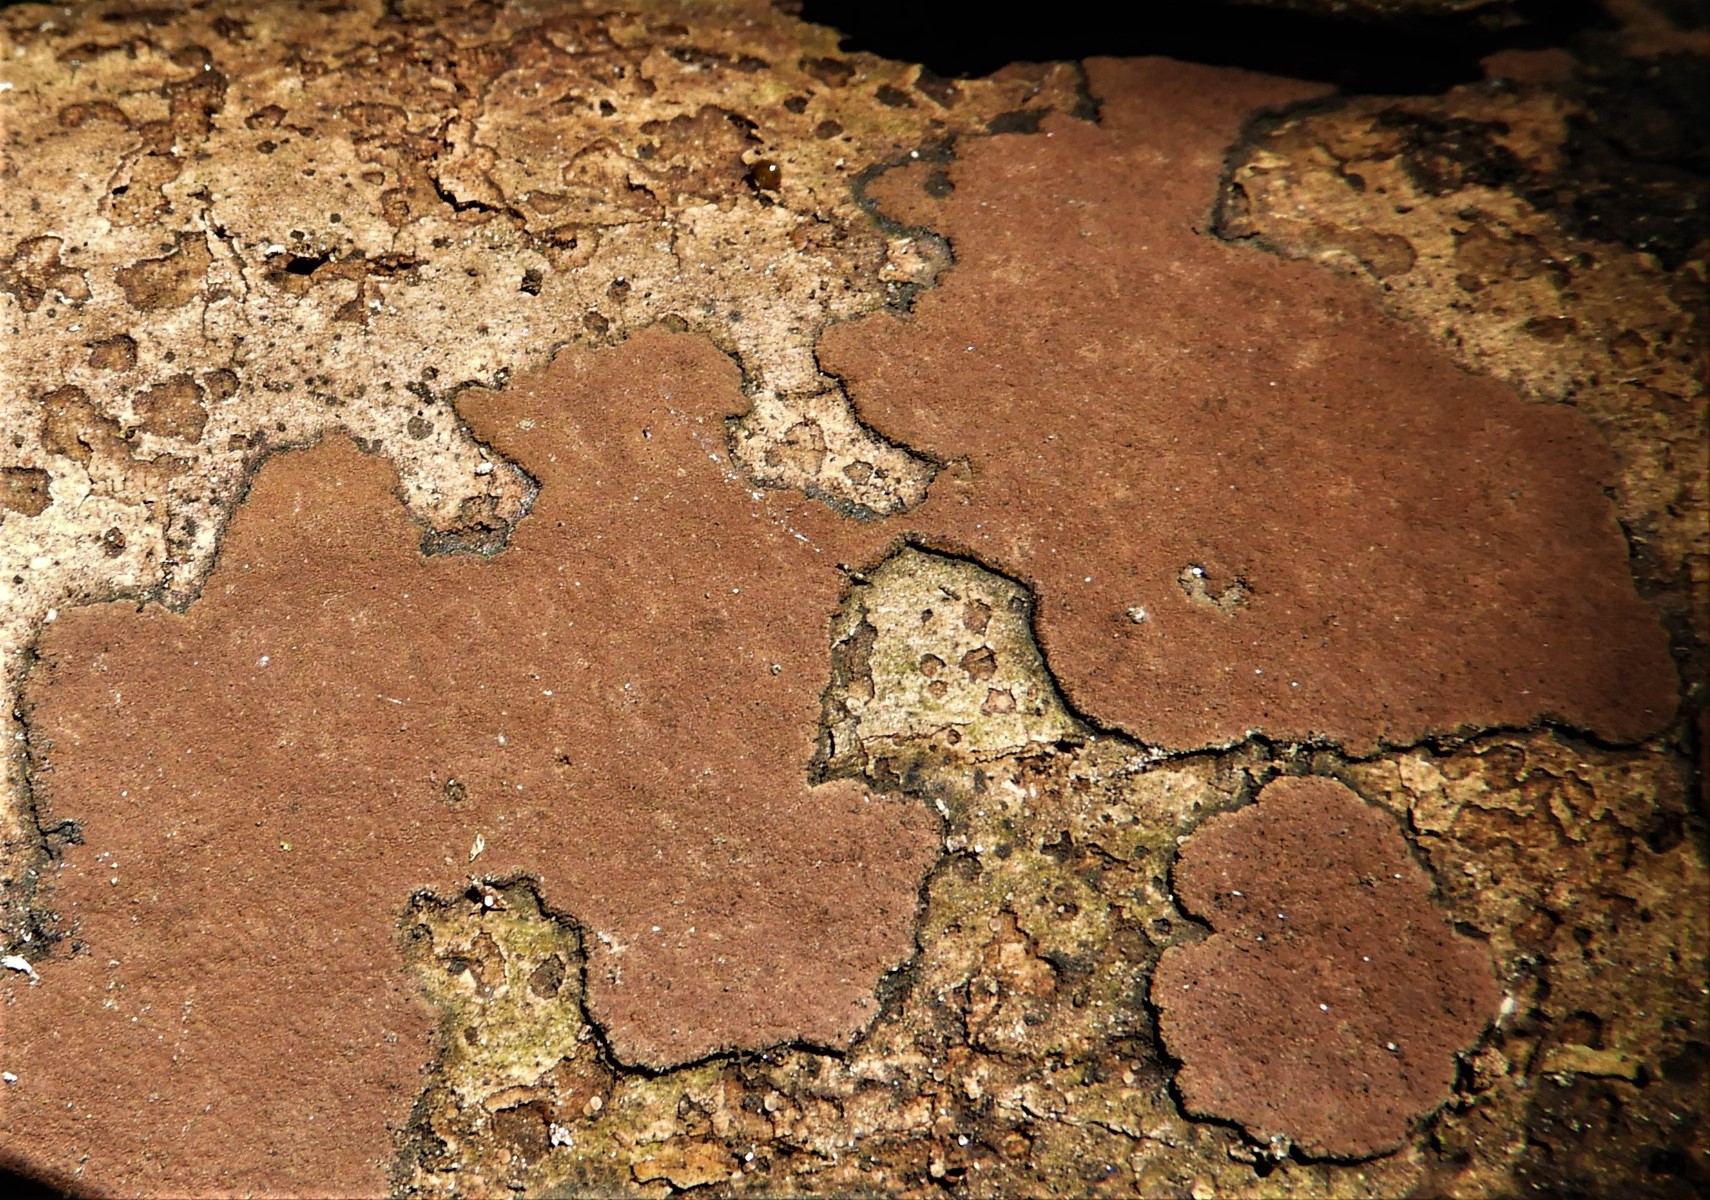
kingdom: Fungi
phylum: Ascomycota
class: Sordariomycetes
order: Xylariales
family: Hypoxylaceae
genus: Hypoxylon
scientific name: Hypoxylon petriniae
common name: nedsænket kulbær
